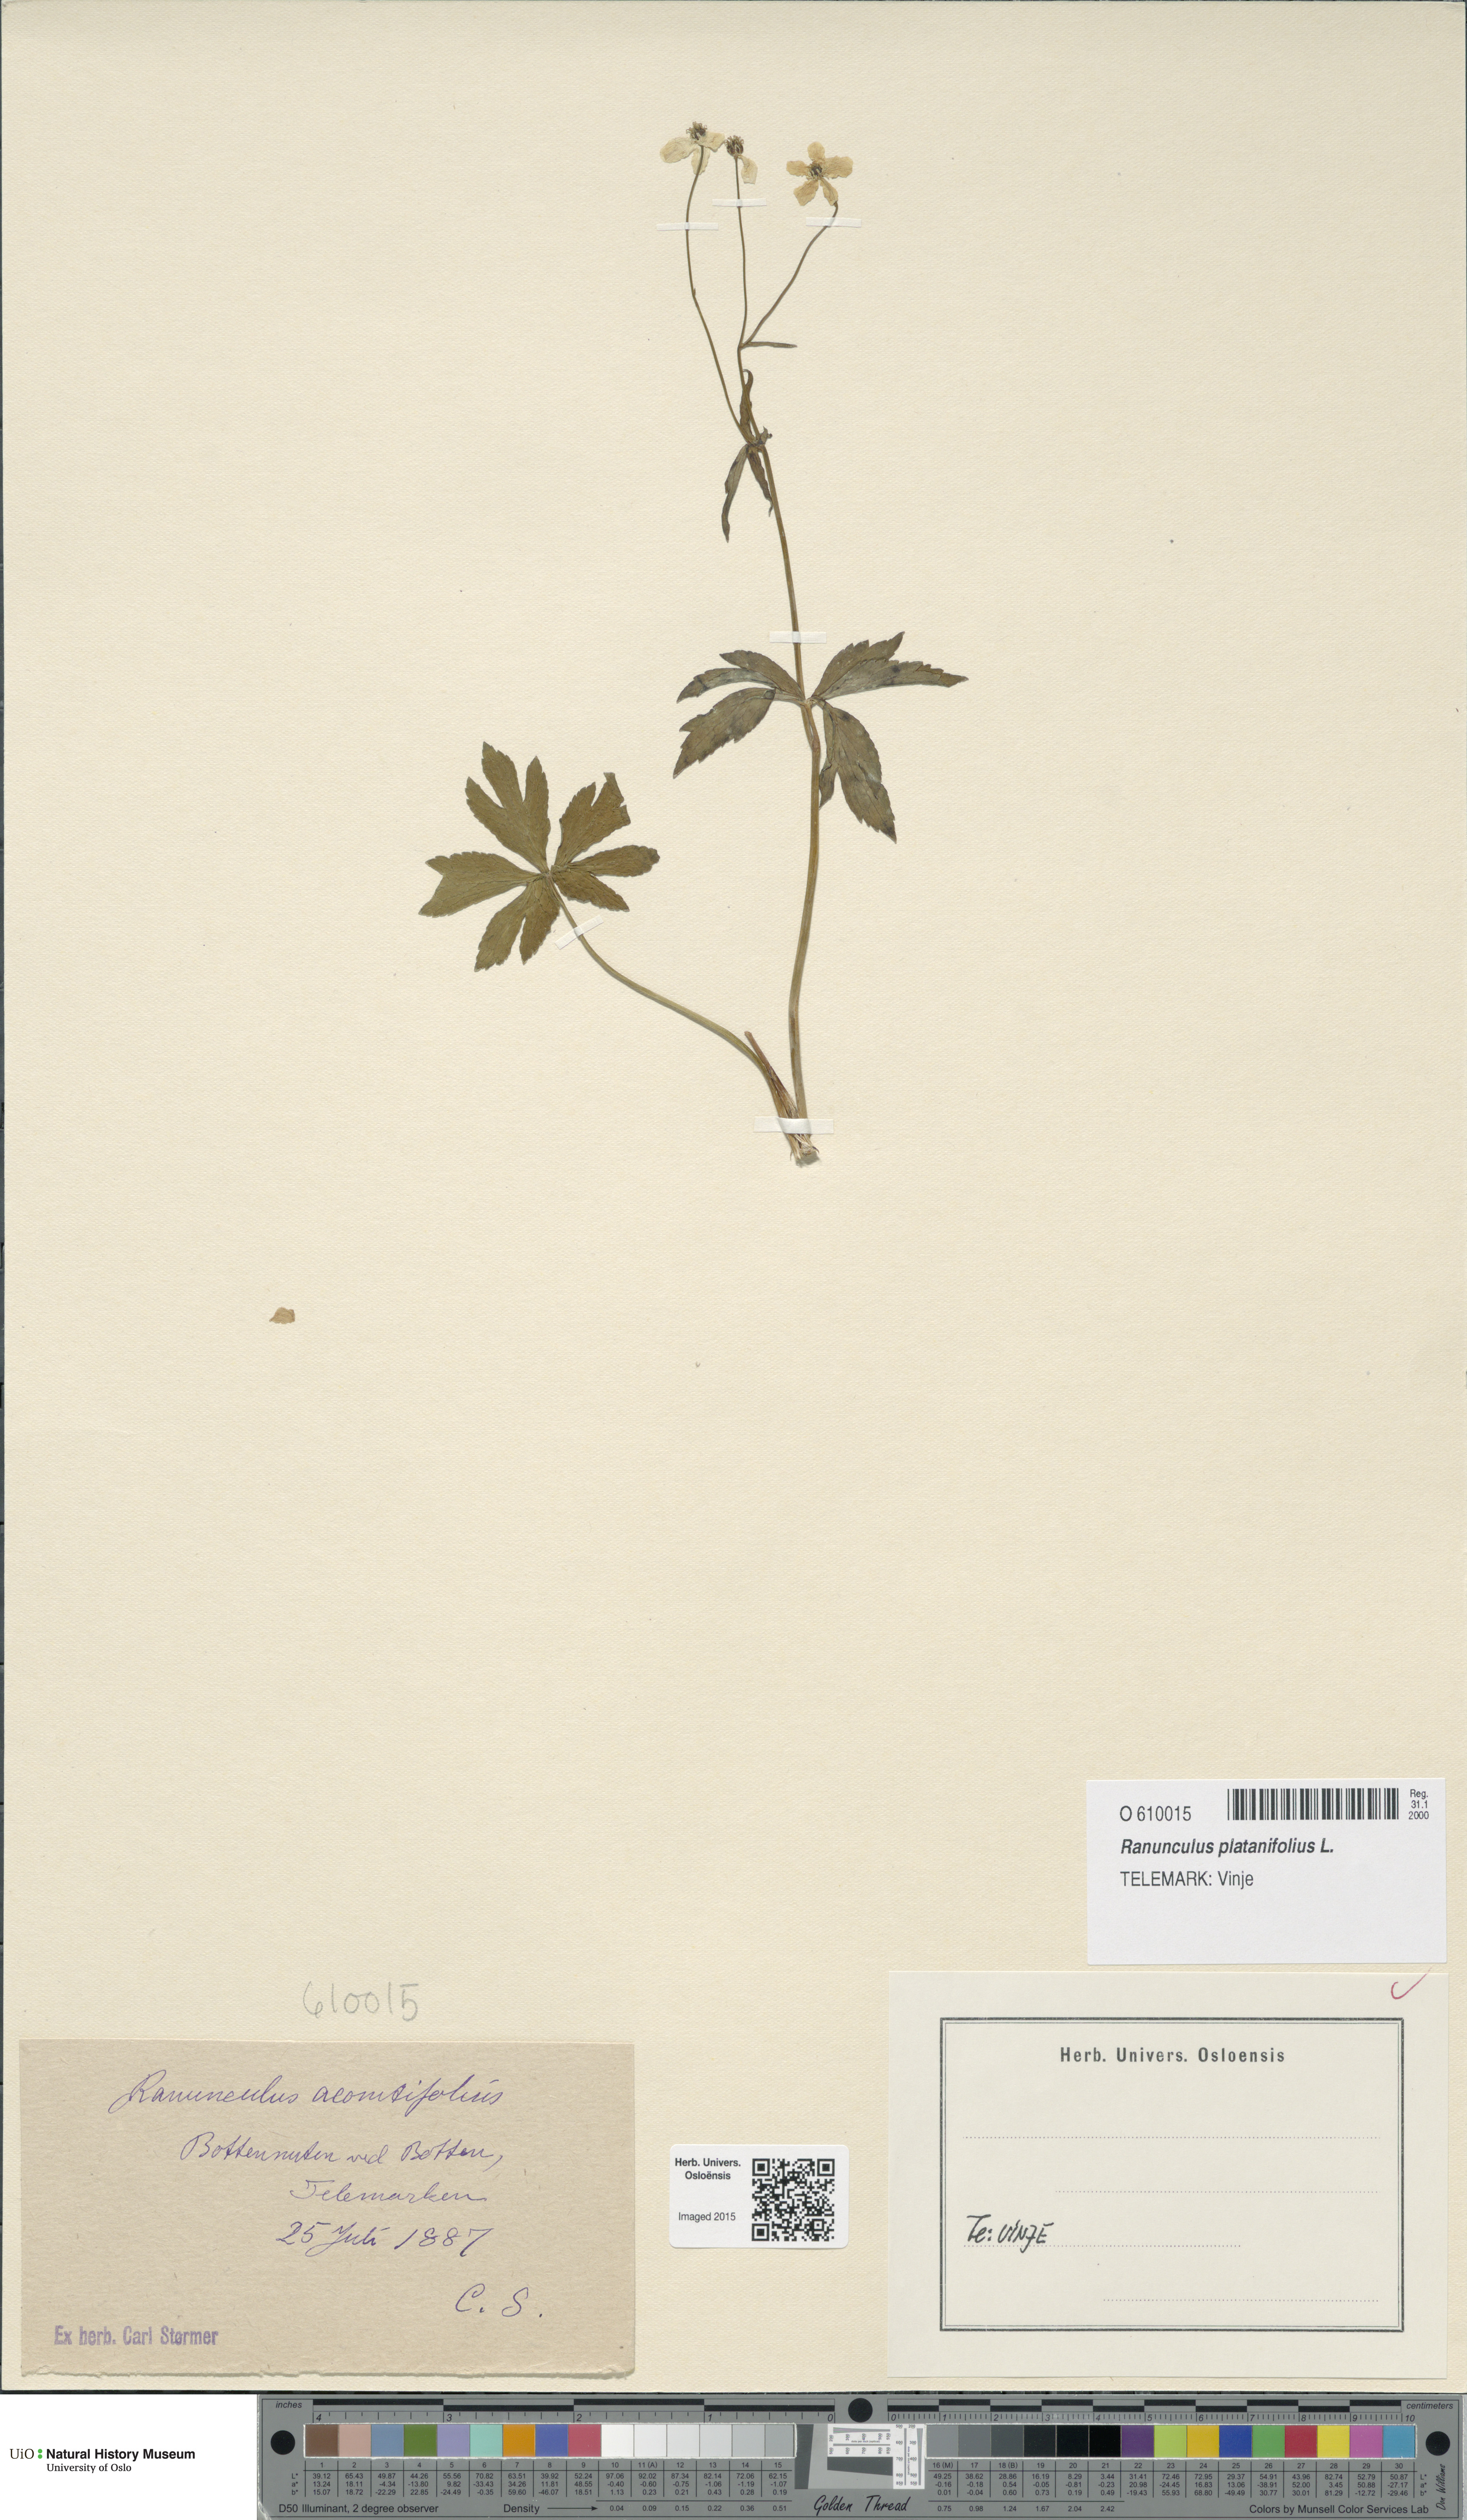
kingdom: Plantae
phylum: Tracheophyta
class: Magnoliopsida
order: Ranunculales
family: Ranunculaceae
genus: Ranunculus
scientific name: Ranunculus platanifolius
